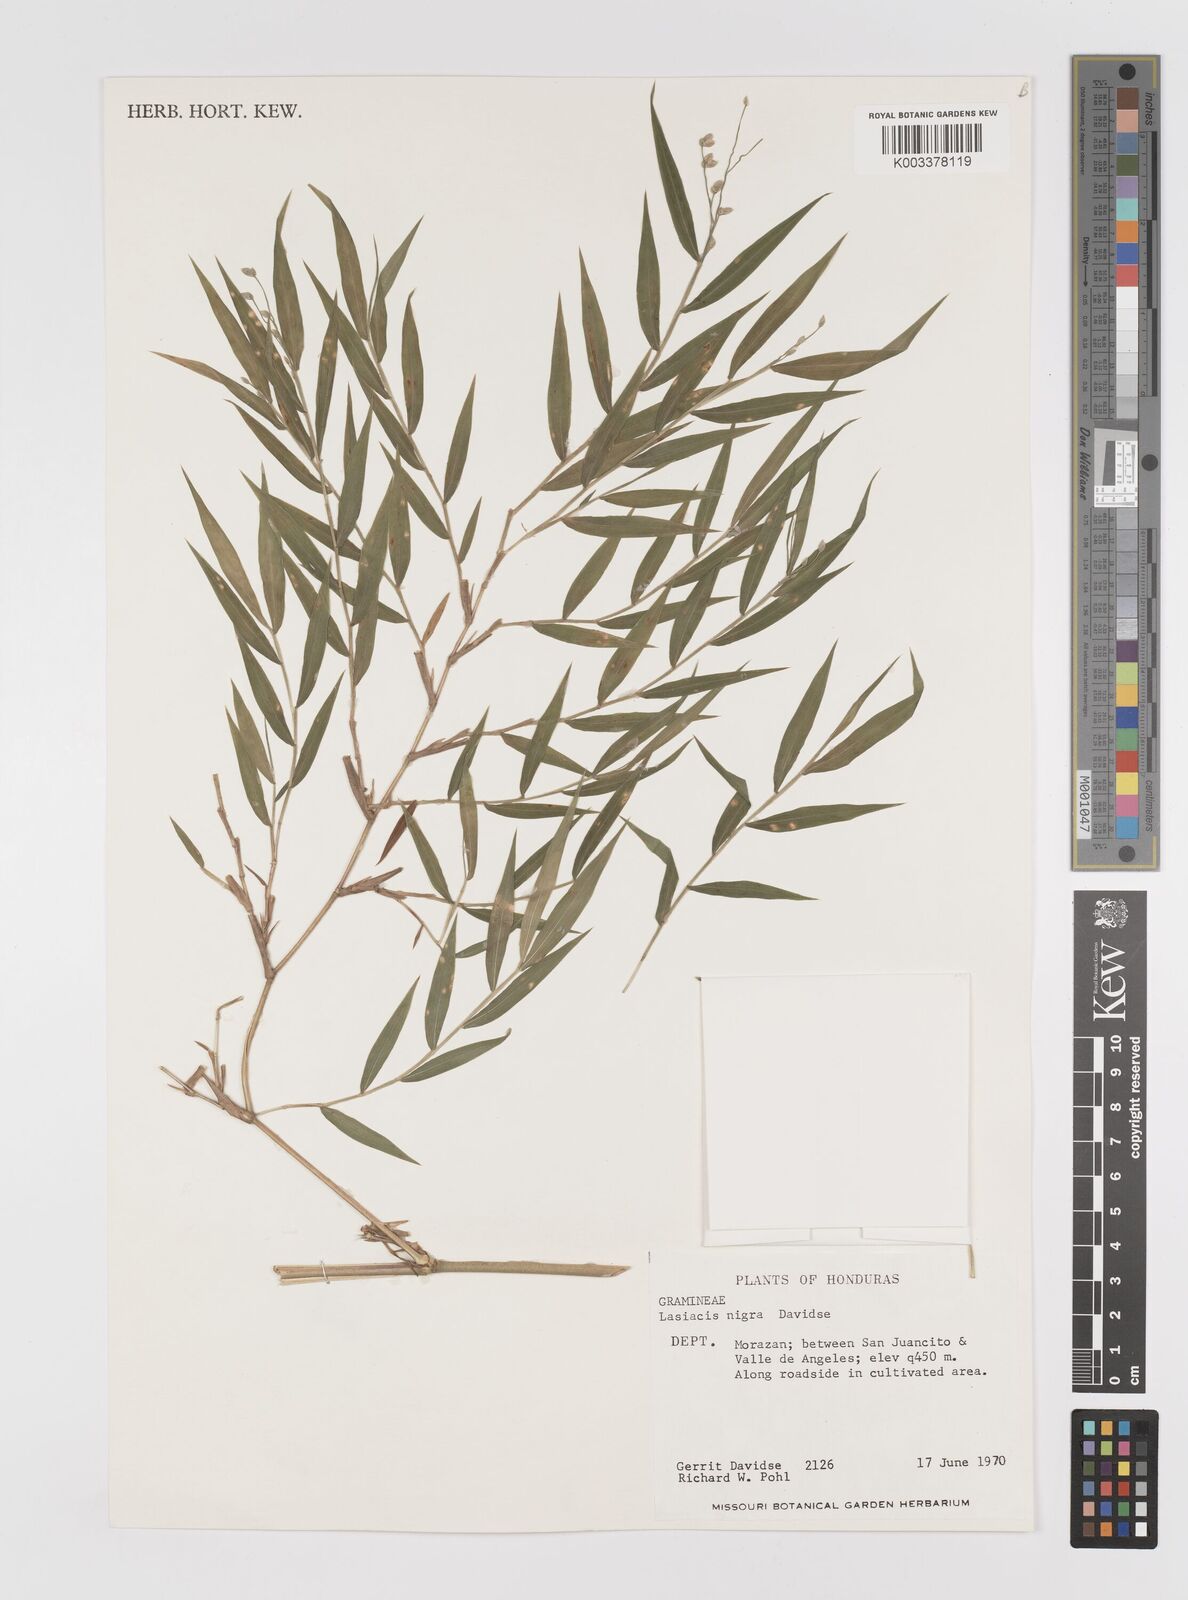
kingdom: Plantae
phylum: Tracheophyta
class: Liliopsida
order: Poales
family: Poaceae
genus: Lasiacis
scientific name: Lasiacis nigra
